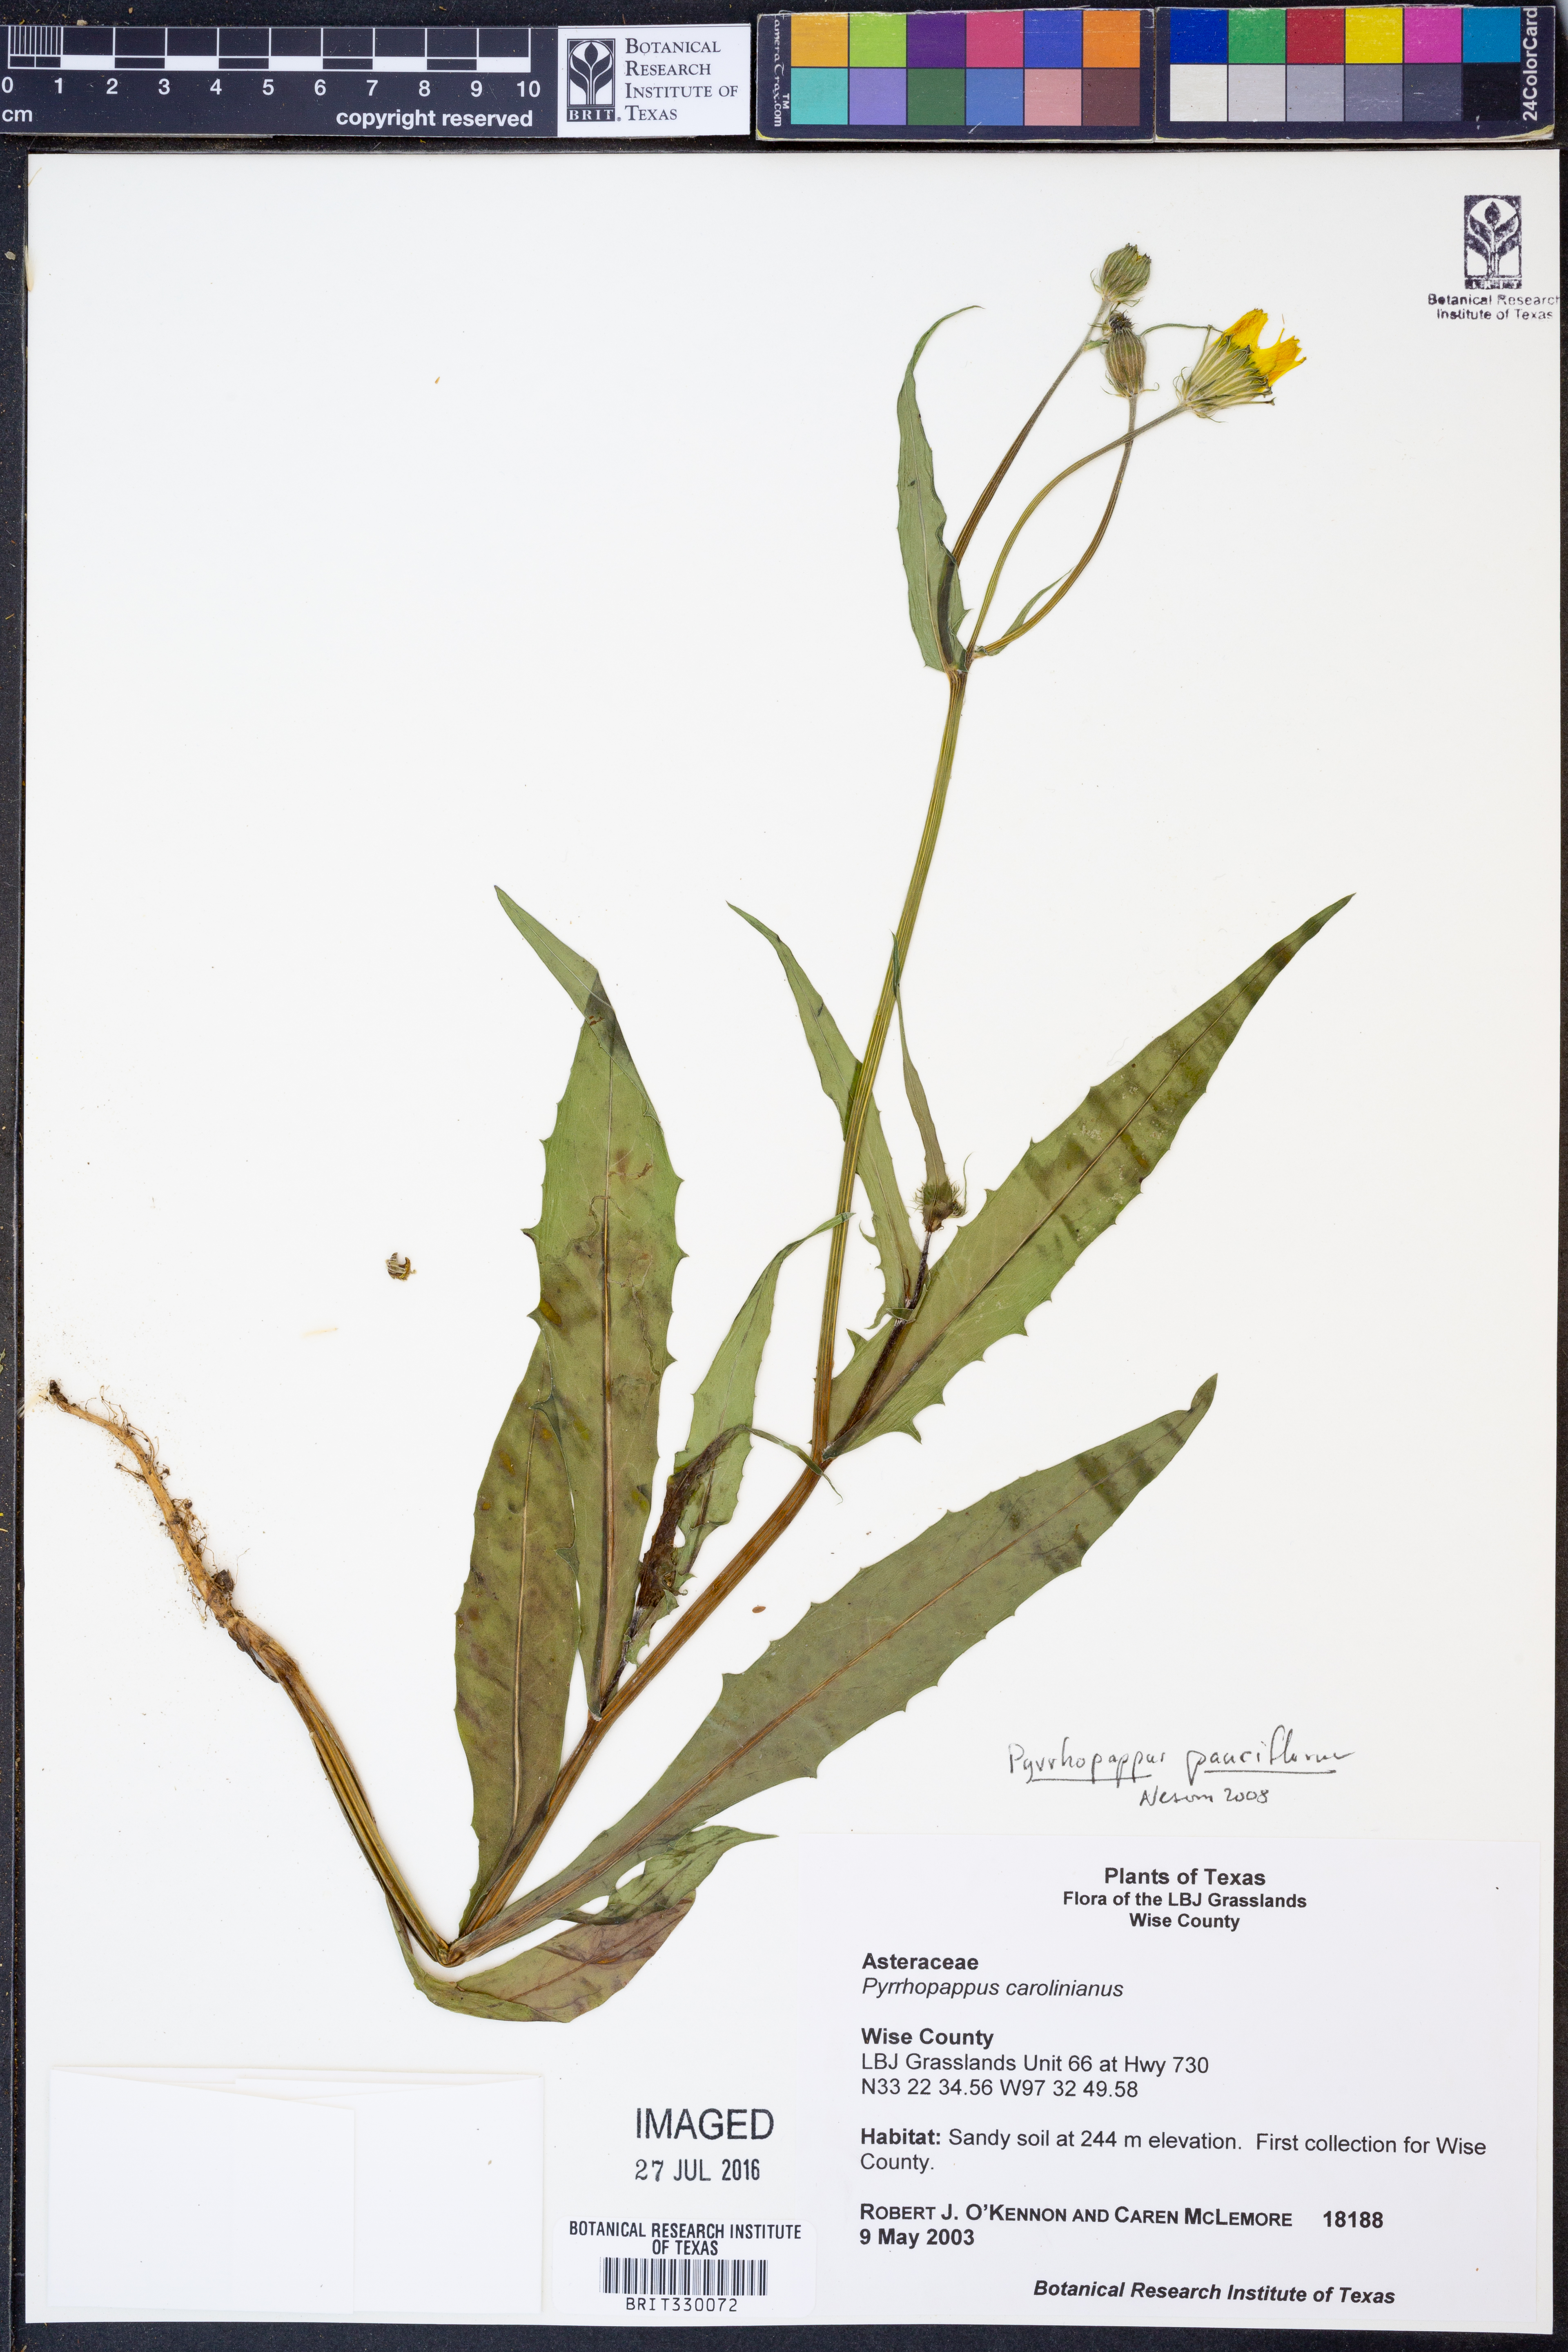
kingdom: Plantae
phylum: Tracheophyta
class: Magnoliopsida
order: Asterales
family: Asteraceae
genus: Pyrrhopappus
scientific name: Pyrrhopappus pauciflorus
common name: Texas false dandelion
